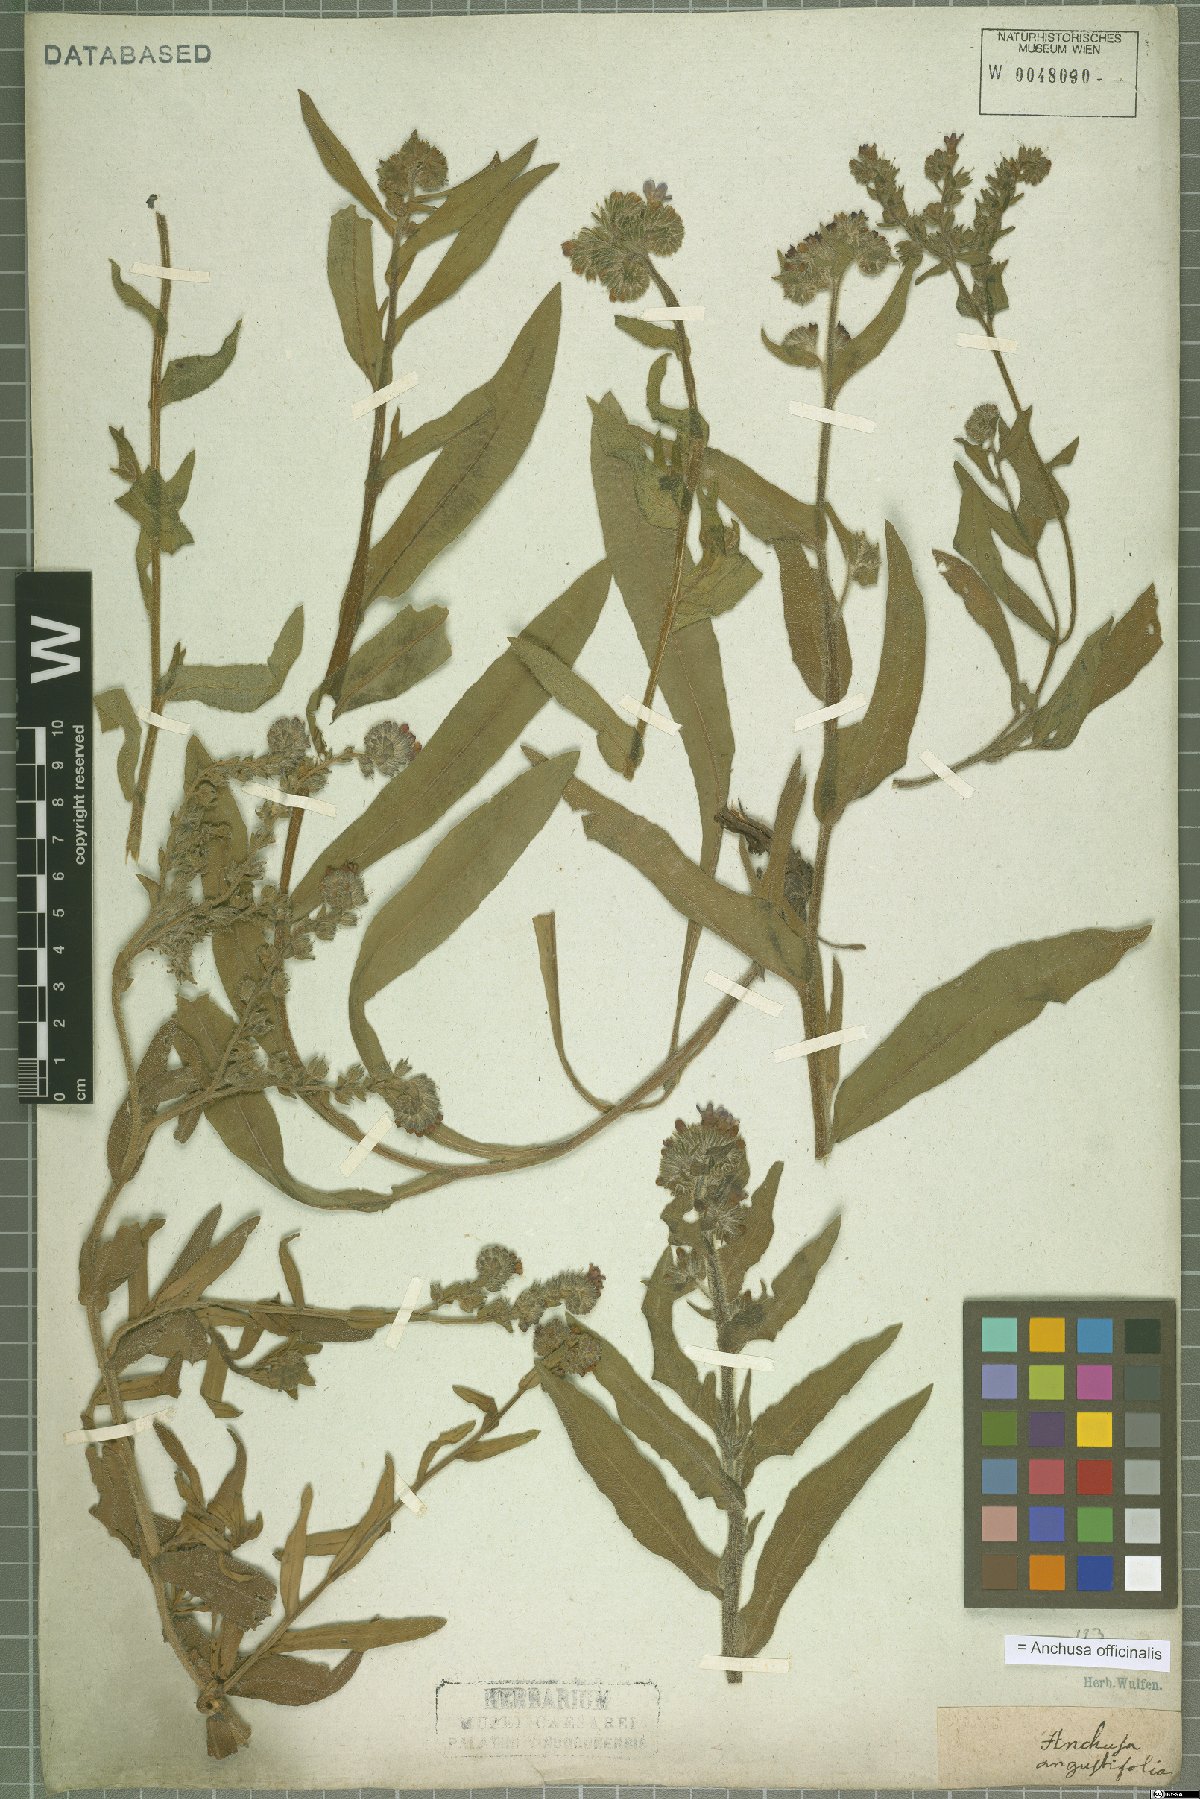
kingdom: Plantae
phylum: Tracheophyta
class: Magnoliopsida
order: Boraginales
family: Boraginaceae
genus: Anchusa
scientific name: Anchusa officinalis
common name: Alkanet
